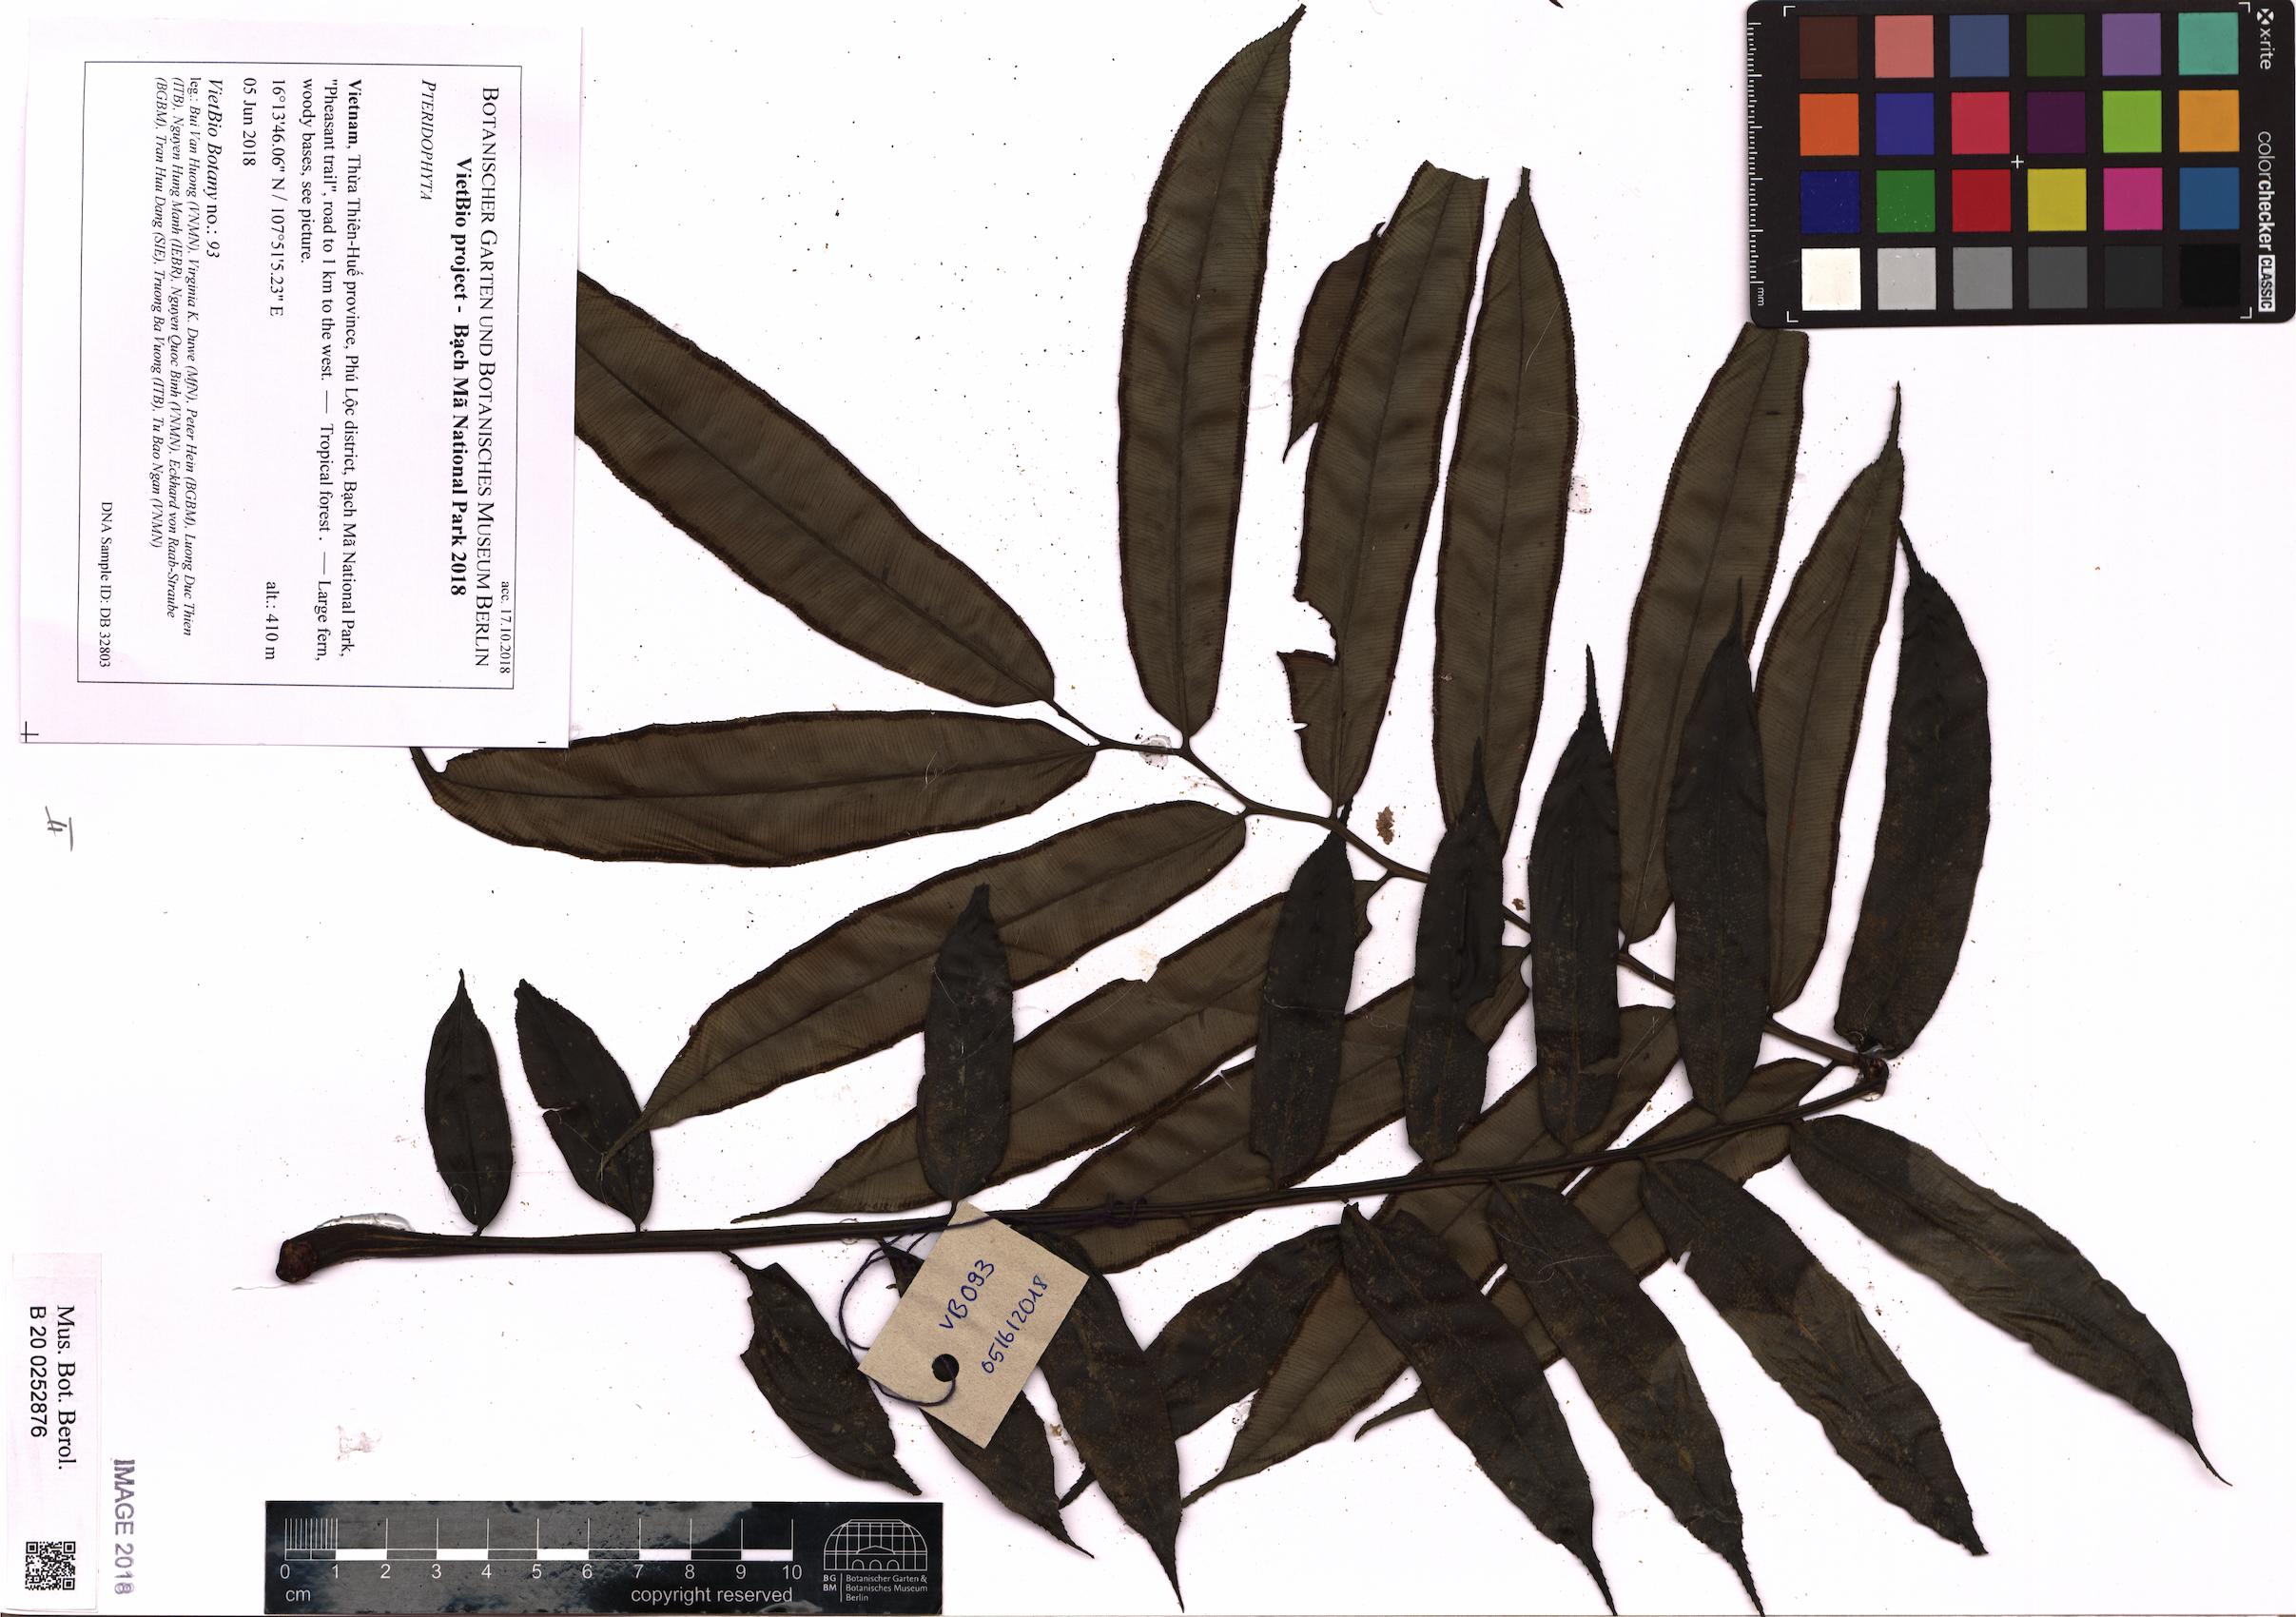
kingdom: Plantae
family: Pteridophyta
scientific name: Pteridophyta
